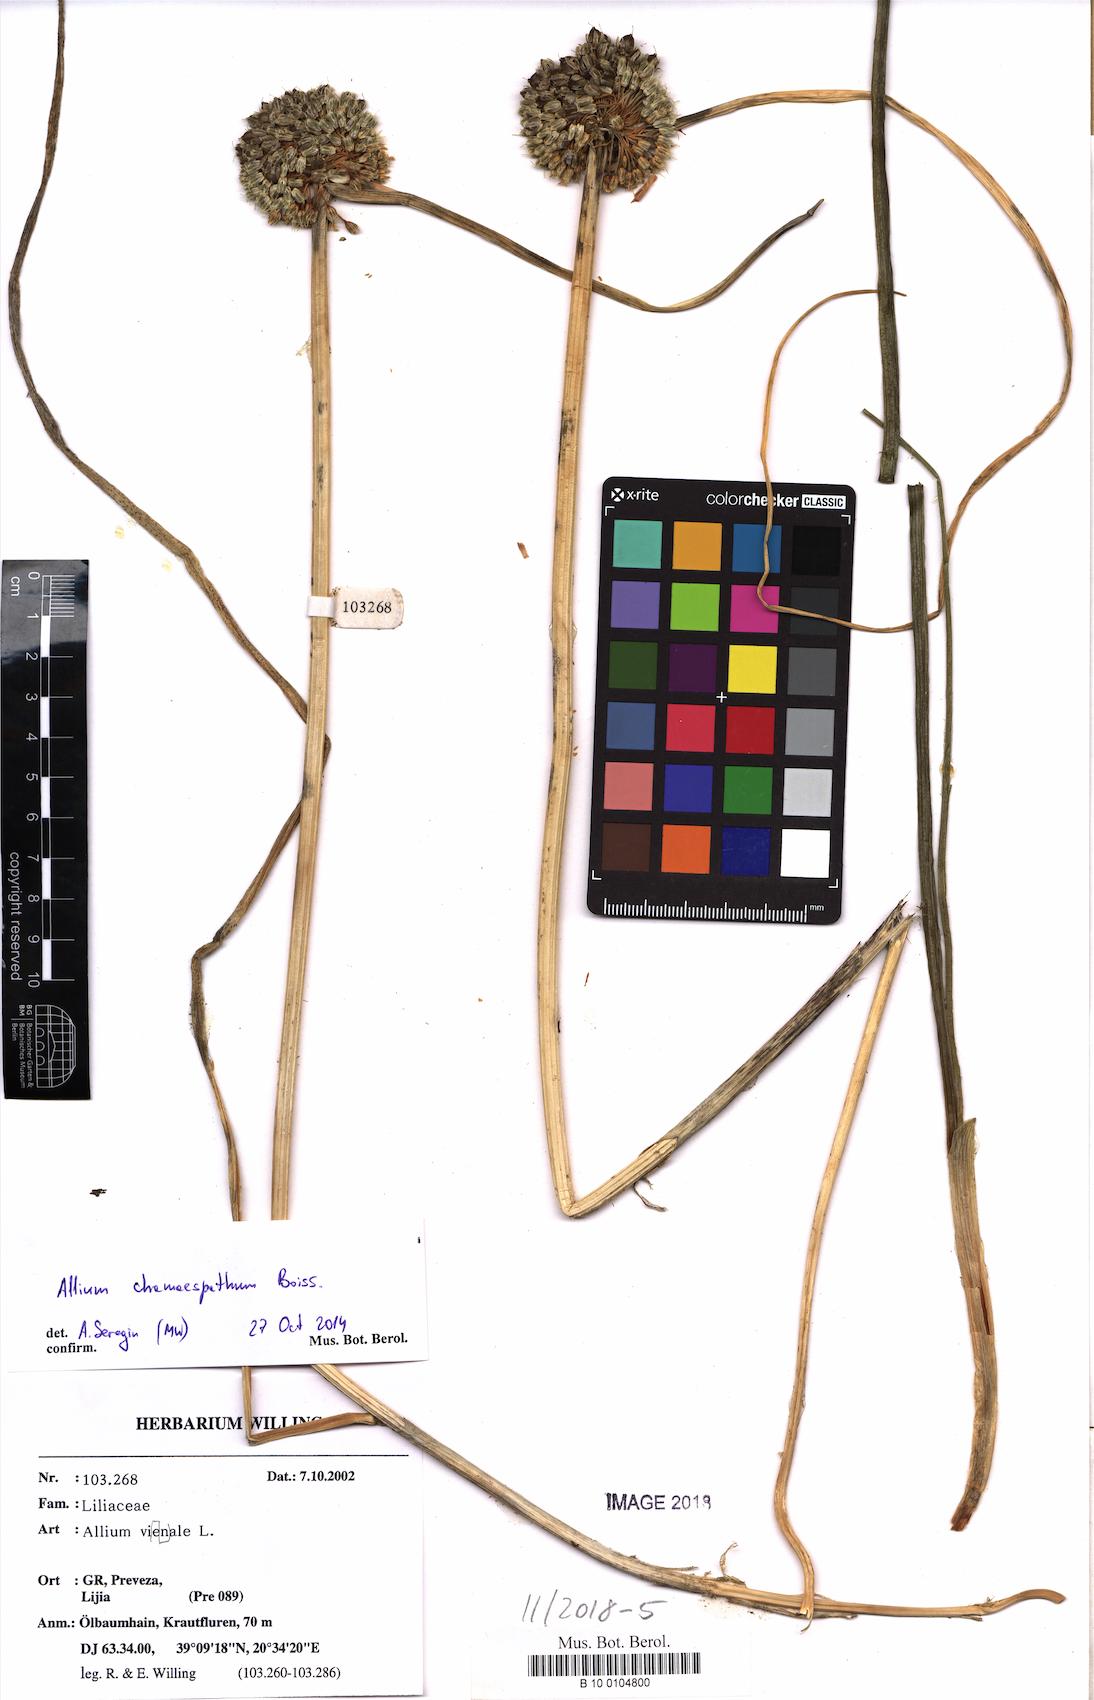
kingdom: Plantae
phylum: Tracheophyta
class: Liliopsida
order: Asparagales
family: Amaryllidaceae
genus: Allium
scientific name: Allium chamaespathum
